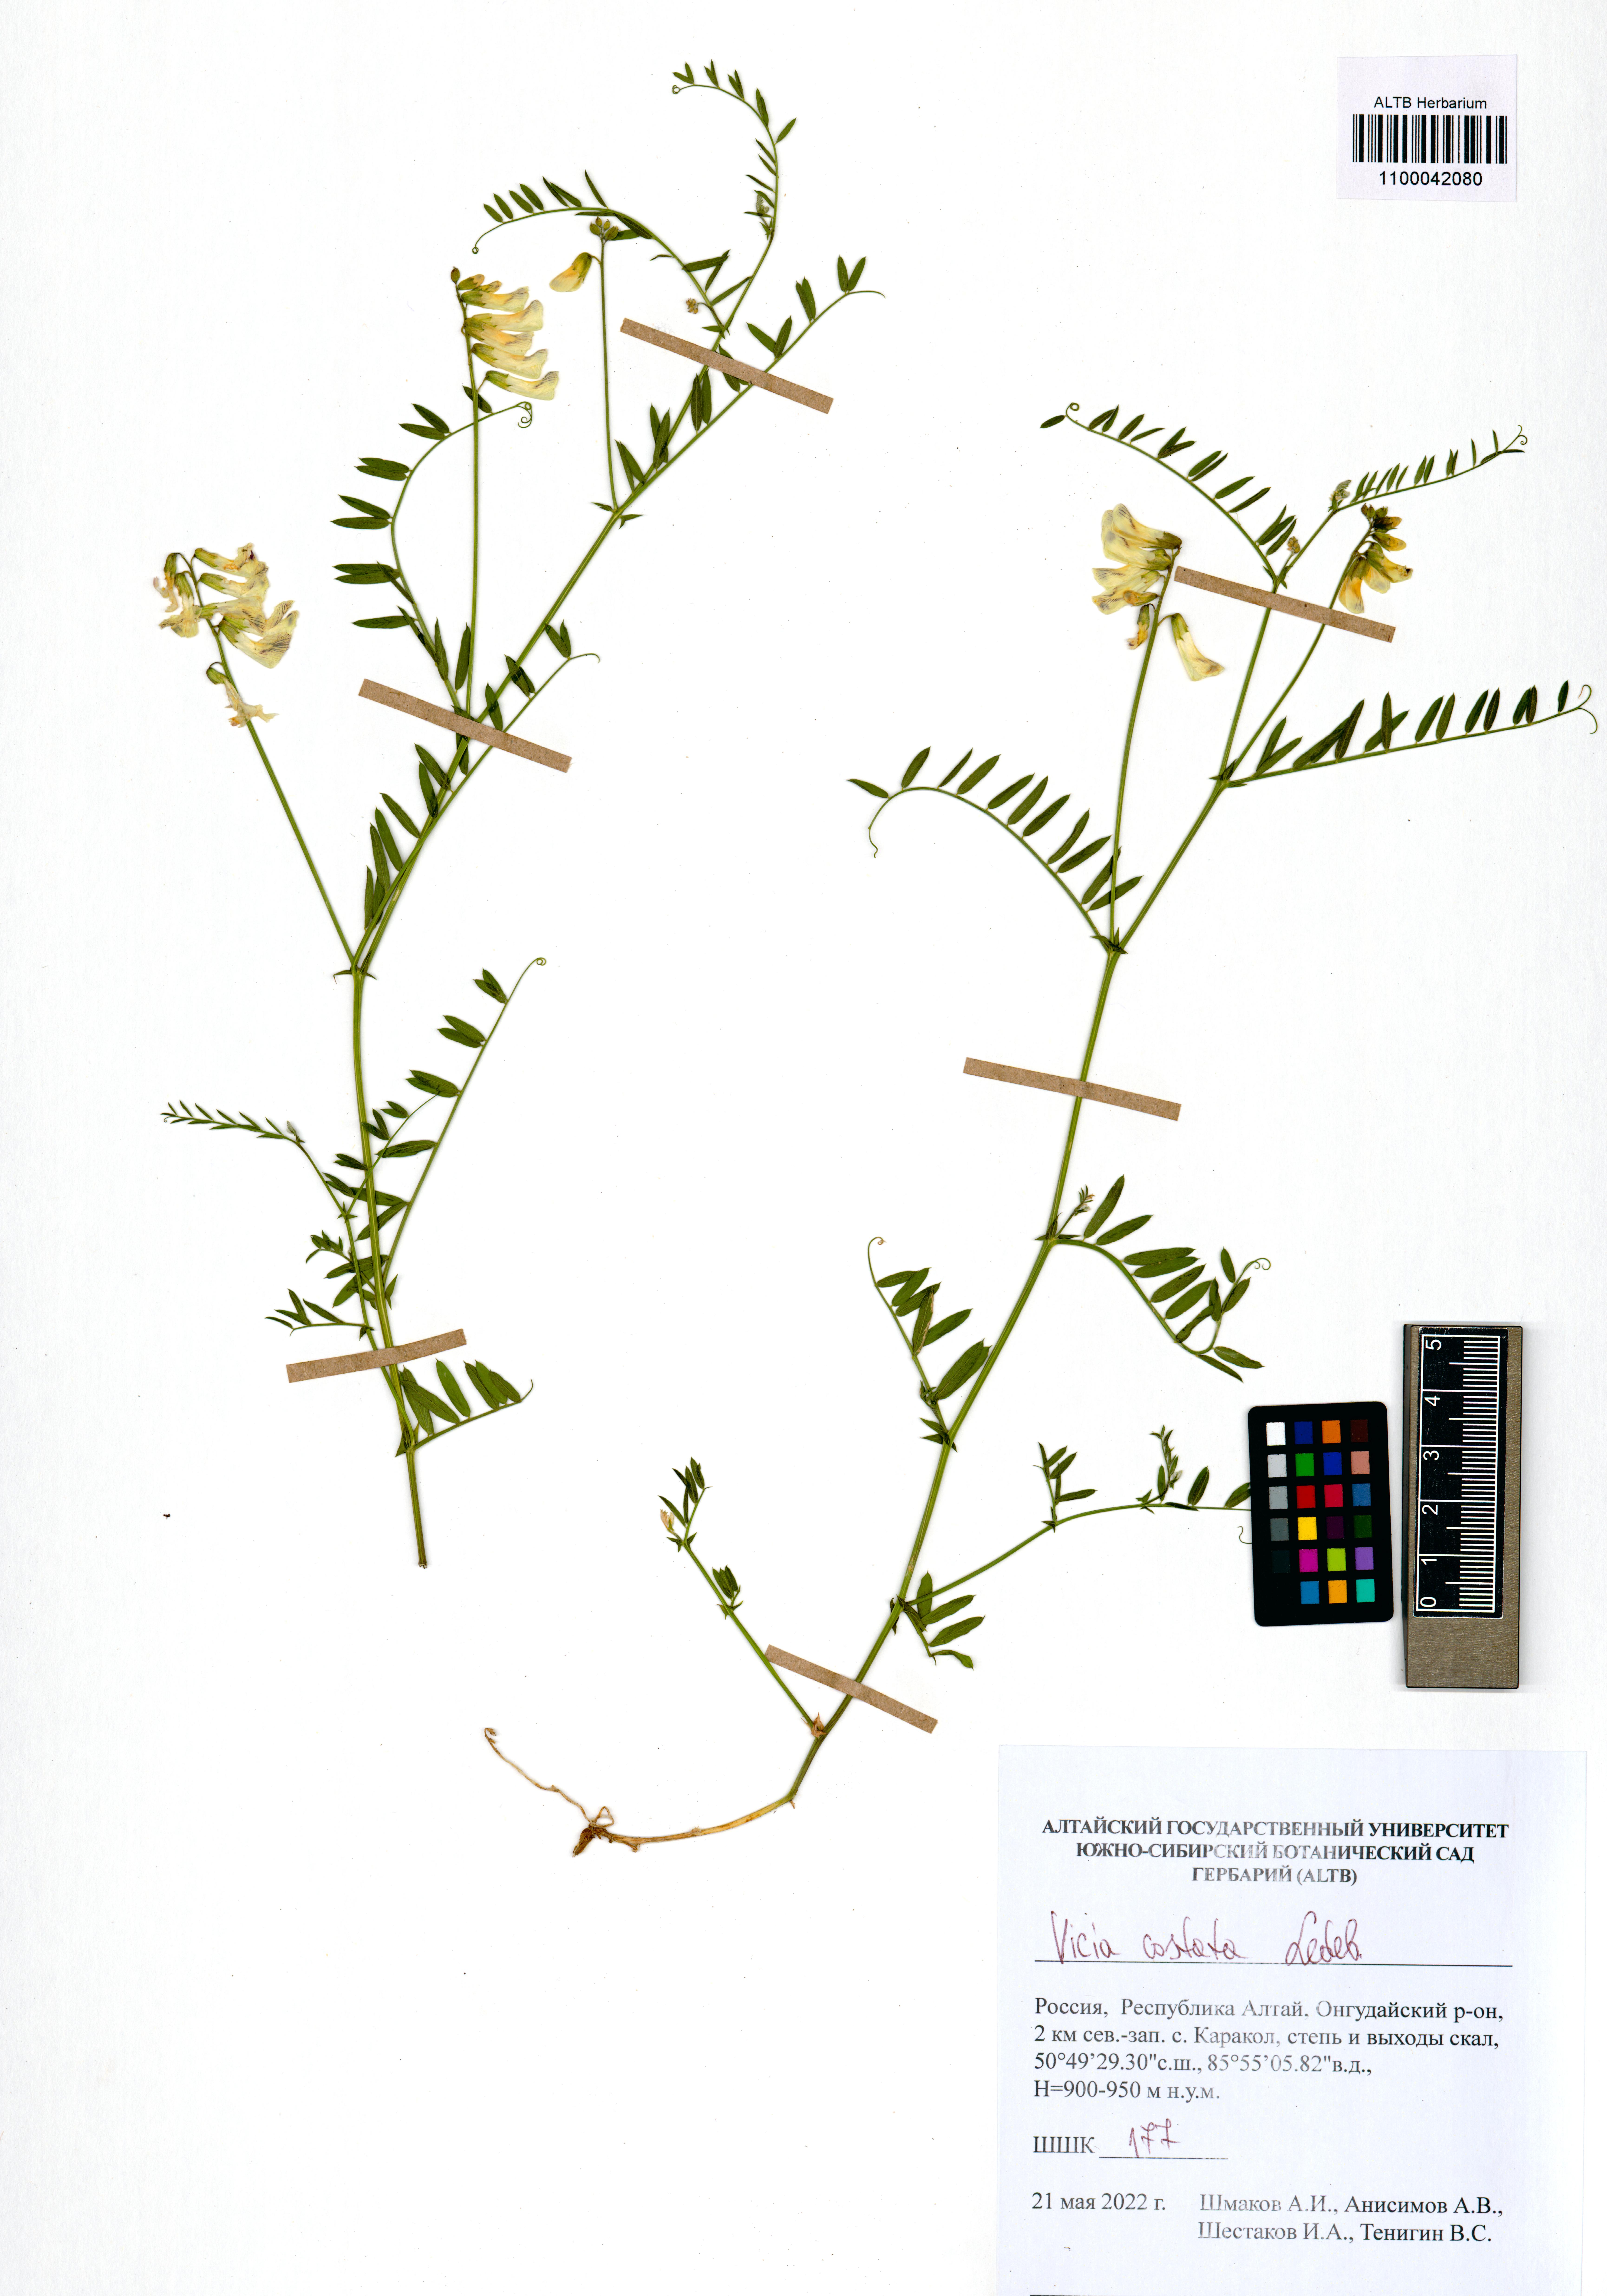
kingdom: Plantae
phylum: Tracheophyta
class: Magnoliopsida
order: Fabales
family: Fabaceae
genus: Vicia
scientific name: Vicia costata
